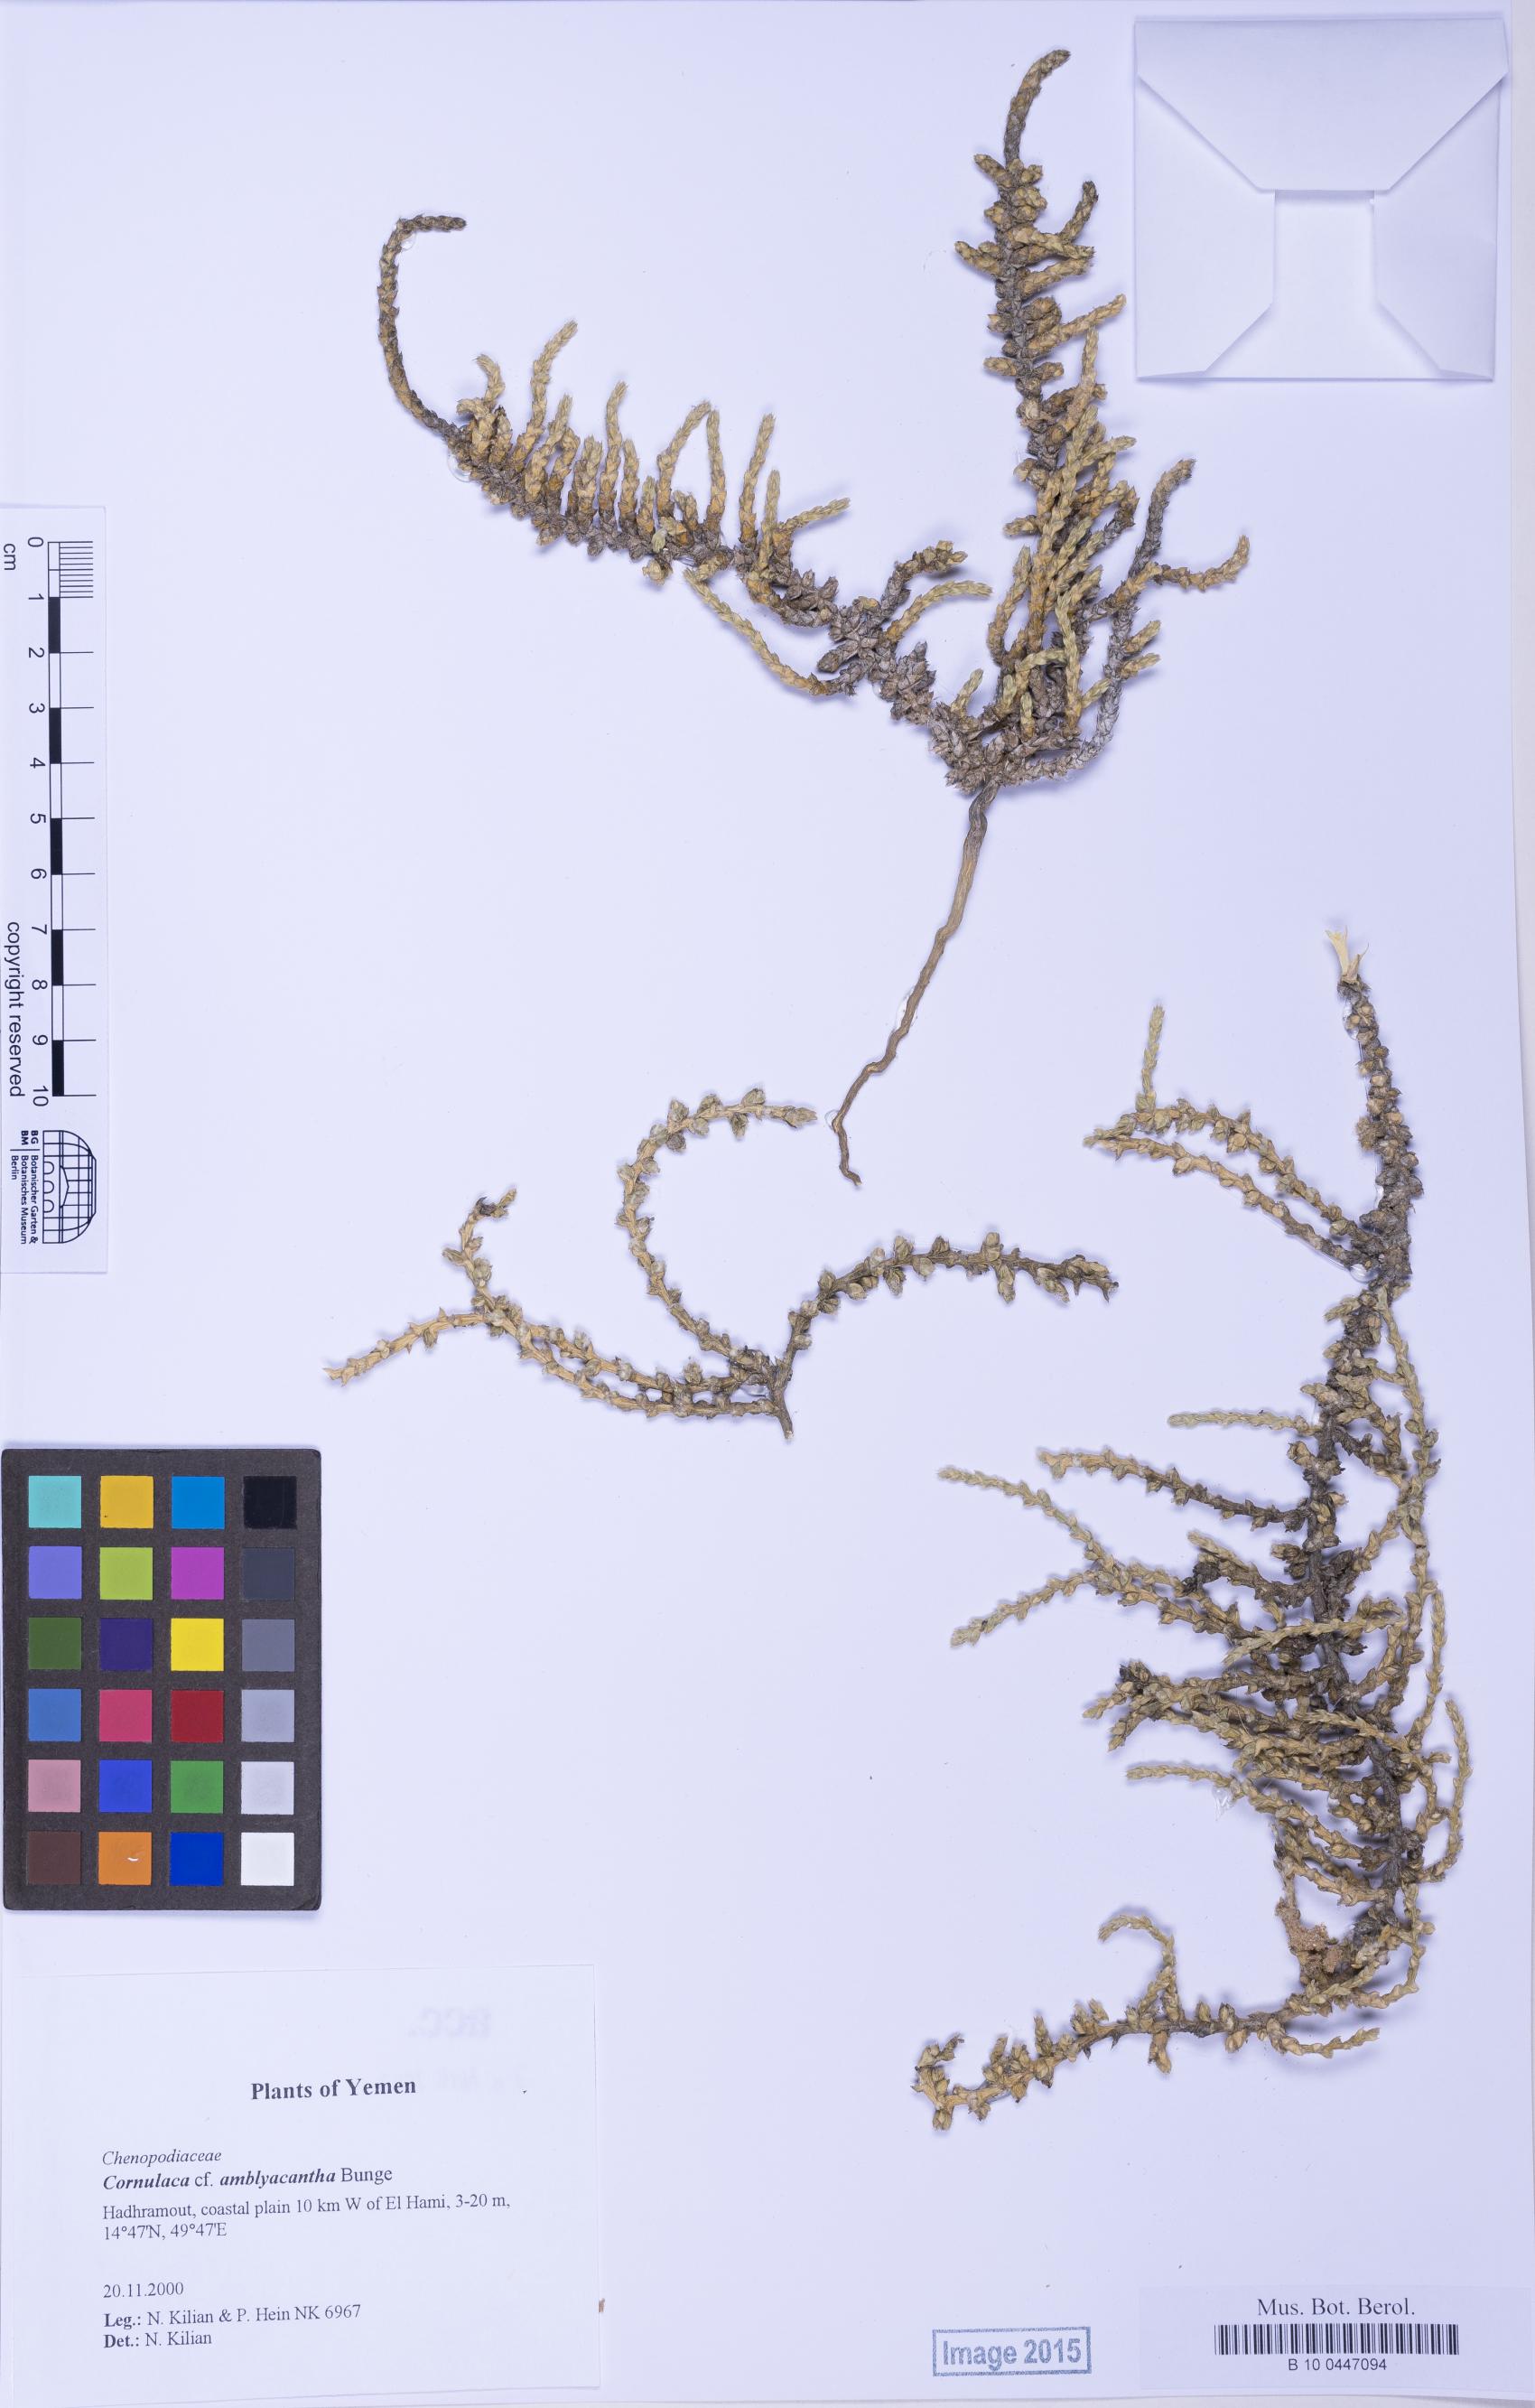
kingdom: Plantae
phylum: Tracheophyta
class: Magnoliopsida
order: Caryophyllales
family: Amaranthaceae
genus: Cornulaca
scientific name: Cornulaca monacantha
